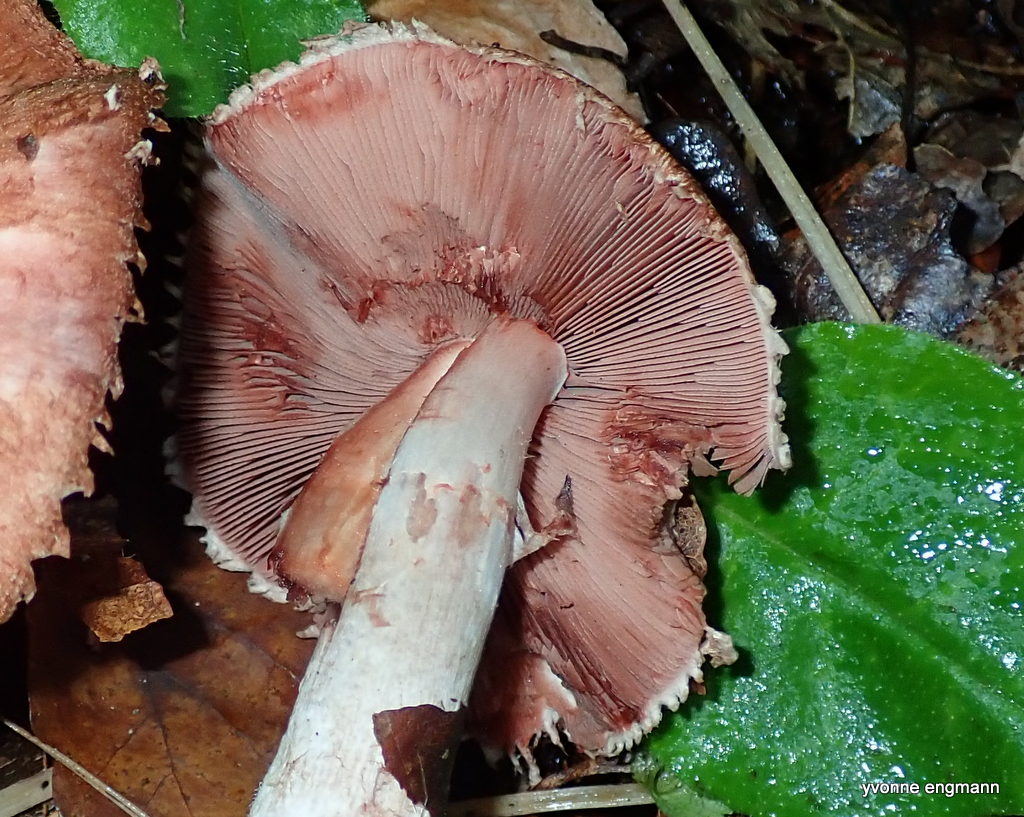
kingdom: Fungi
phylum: Basidiomycota
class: Agaricomycetes
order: Agaricales
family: Agaricaceae
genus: Agaricus
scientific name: Agaricus
